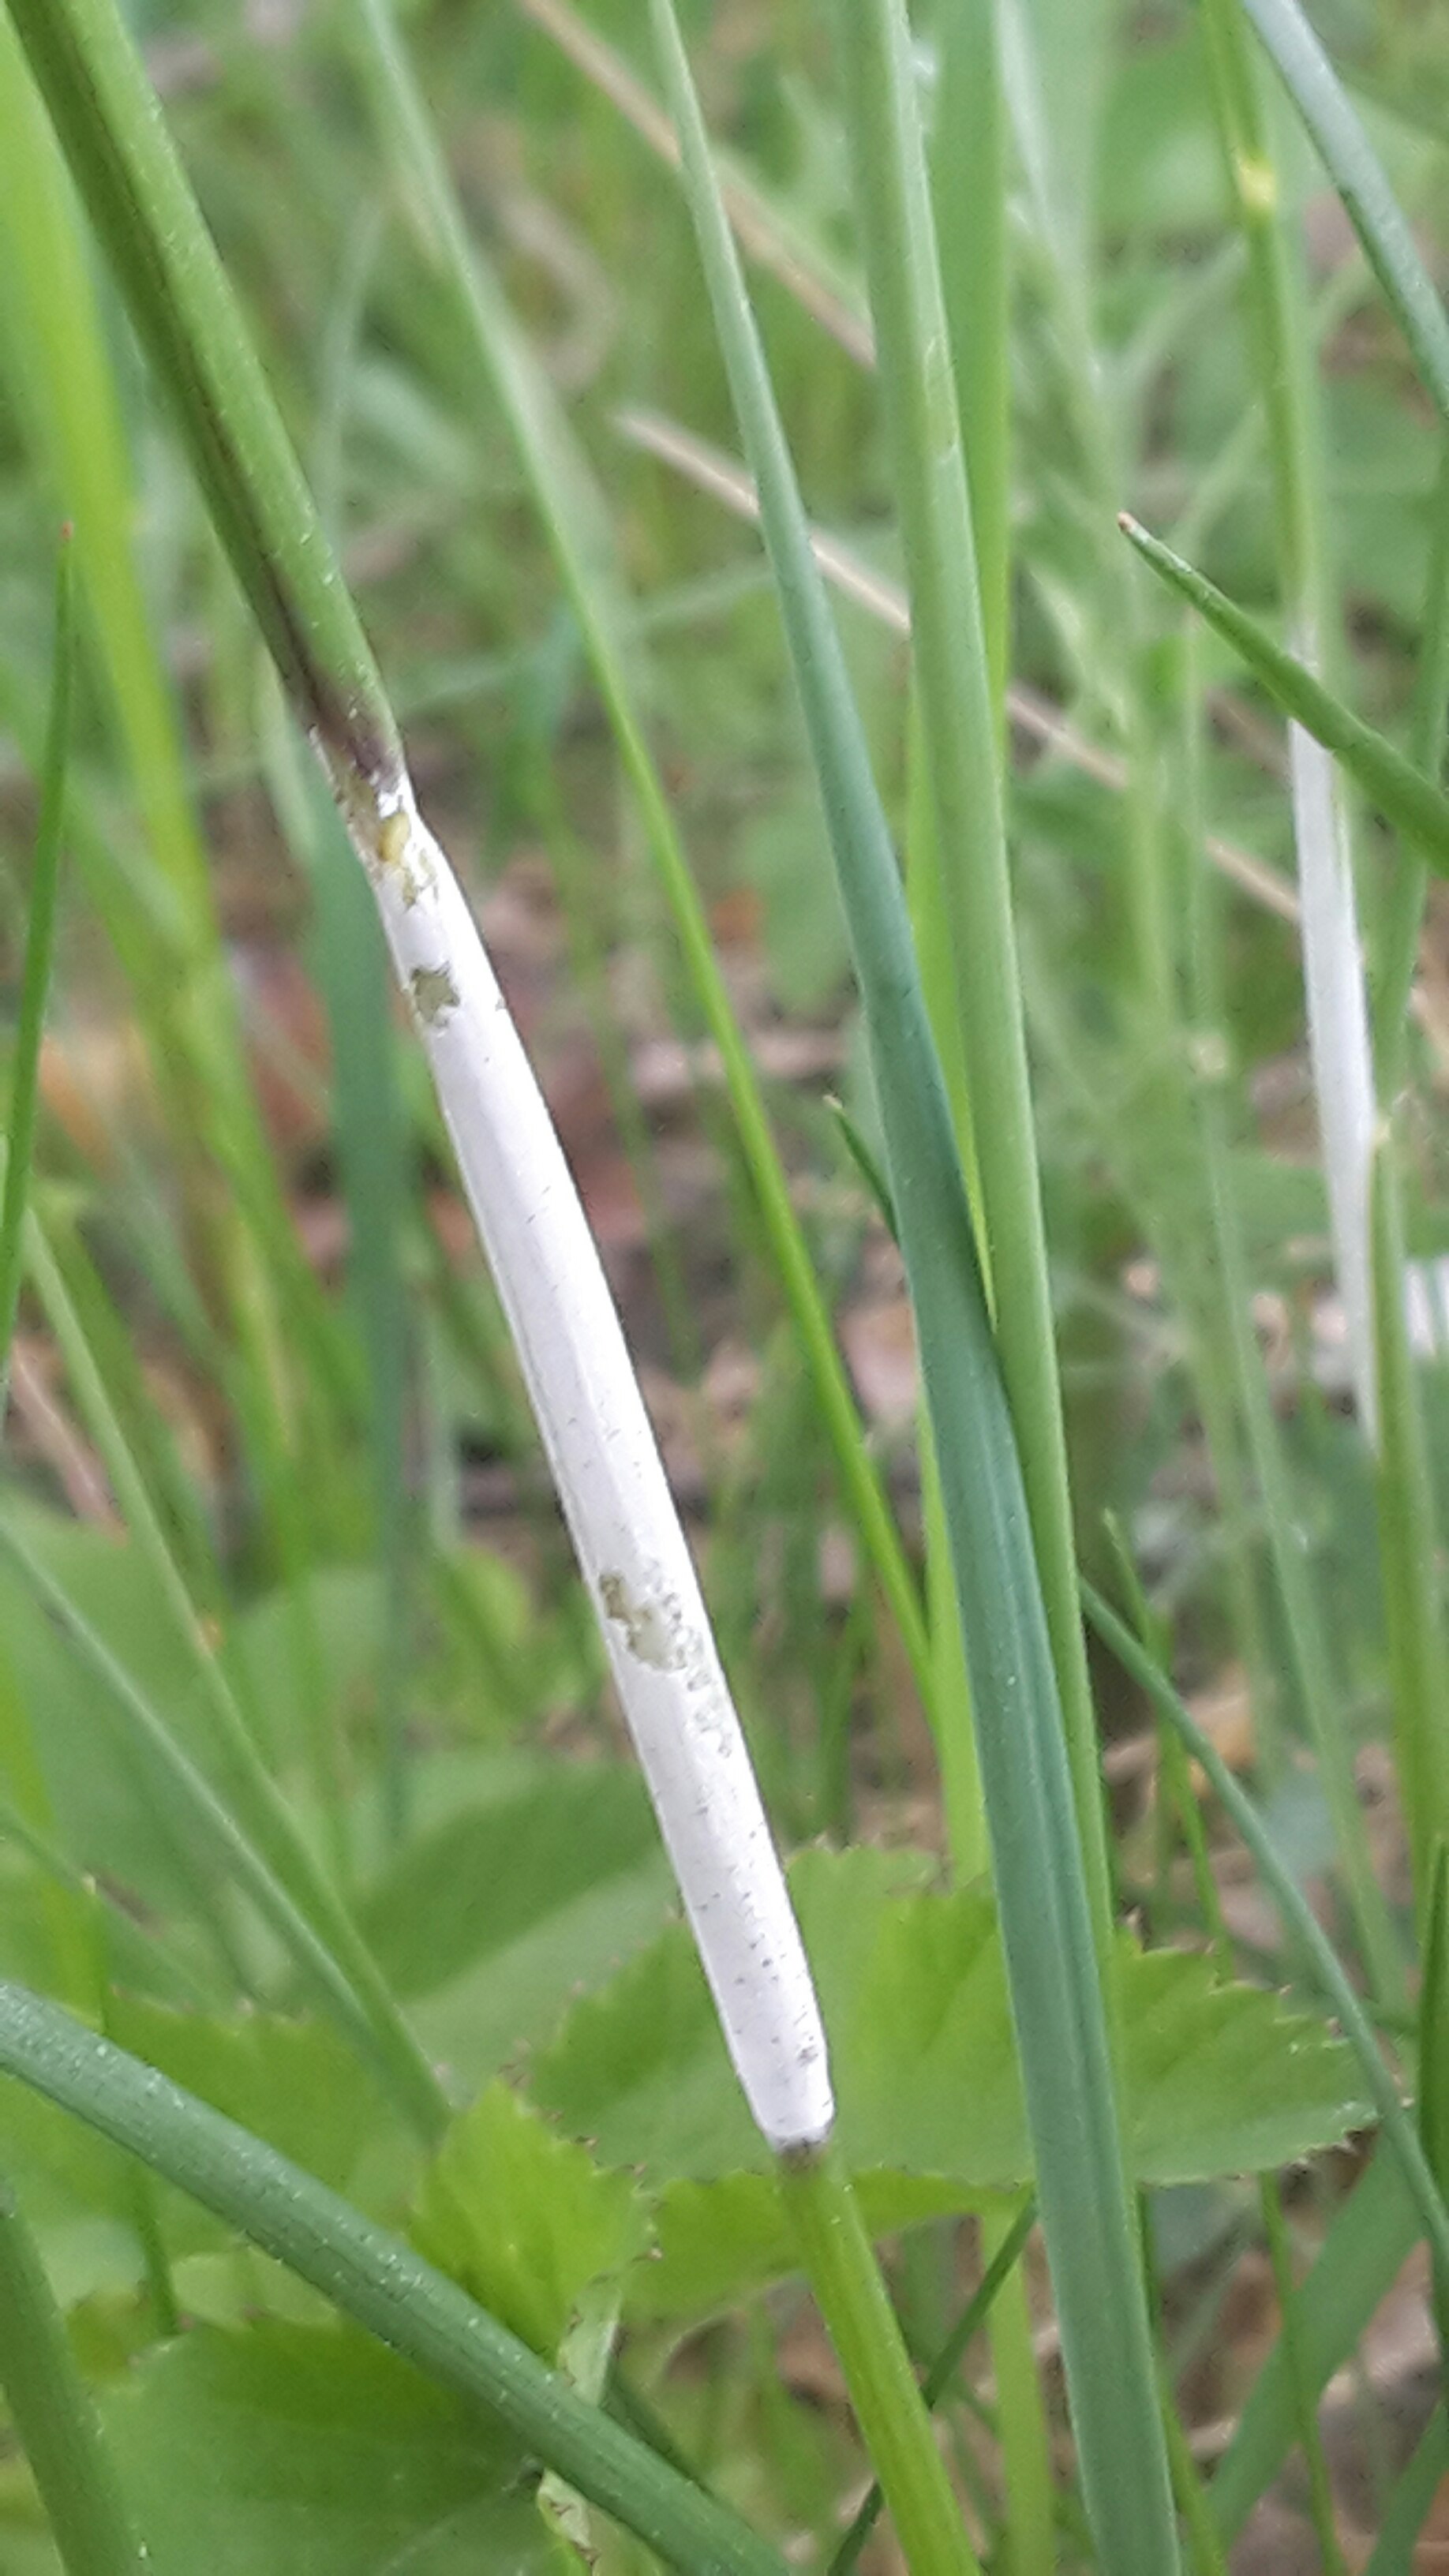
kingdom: Fungi
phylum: Ascomycota
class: Sordariomycetes
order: Hypocreales
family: Clavicipitaceae
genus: Epichloe
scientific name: Epichloe baconii
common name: hvene-kernerør
